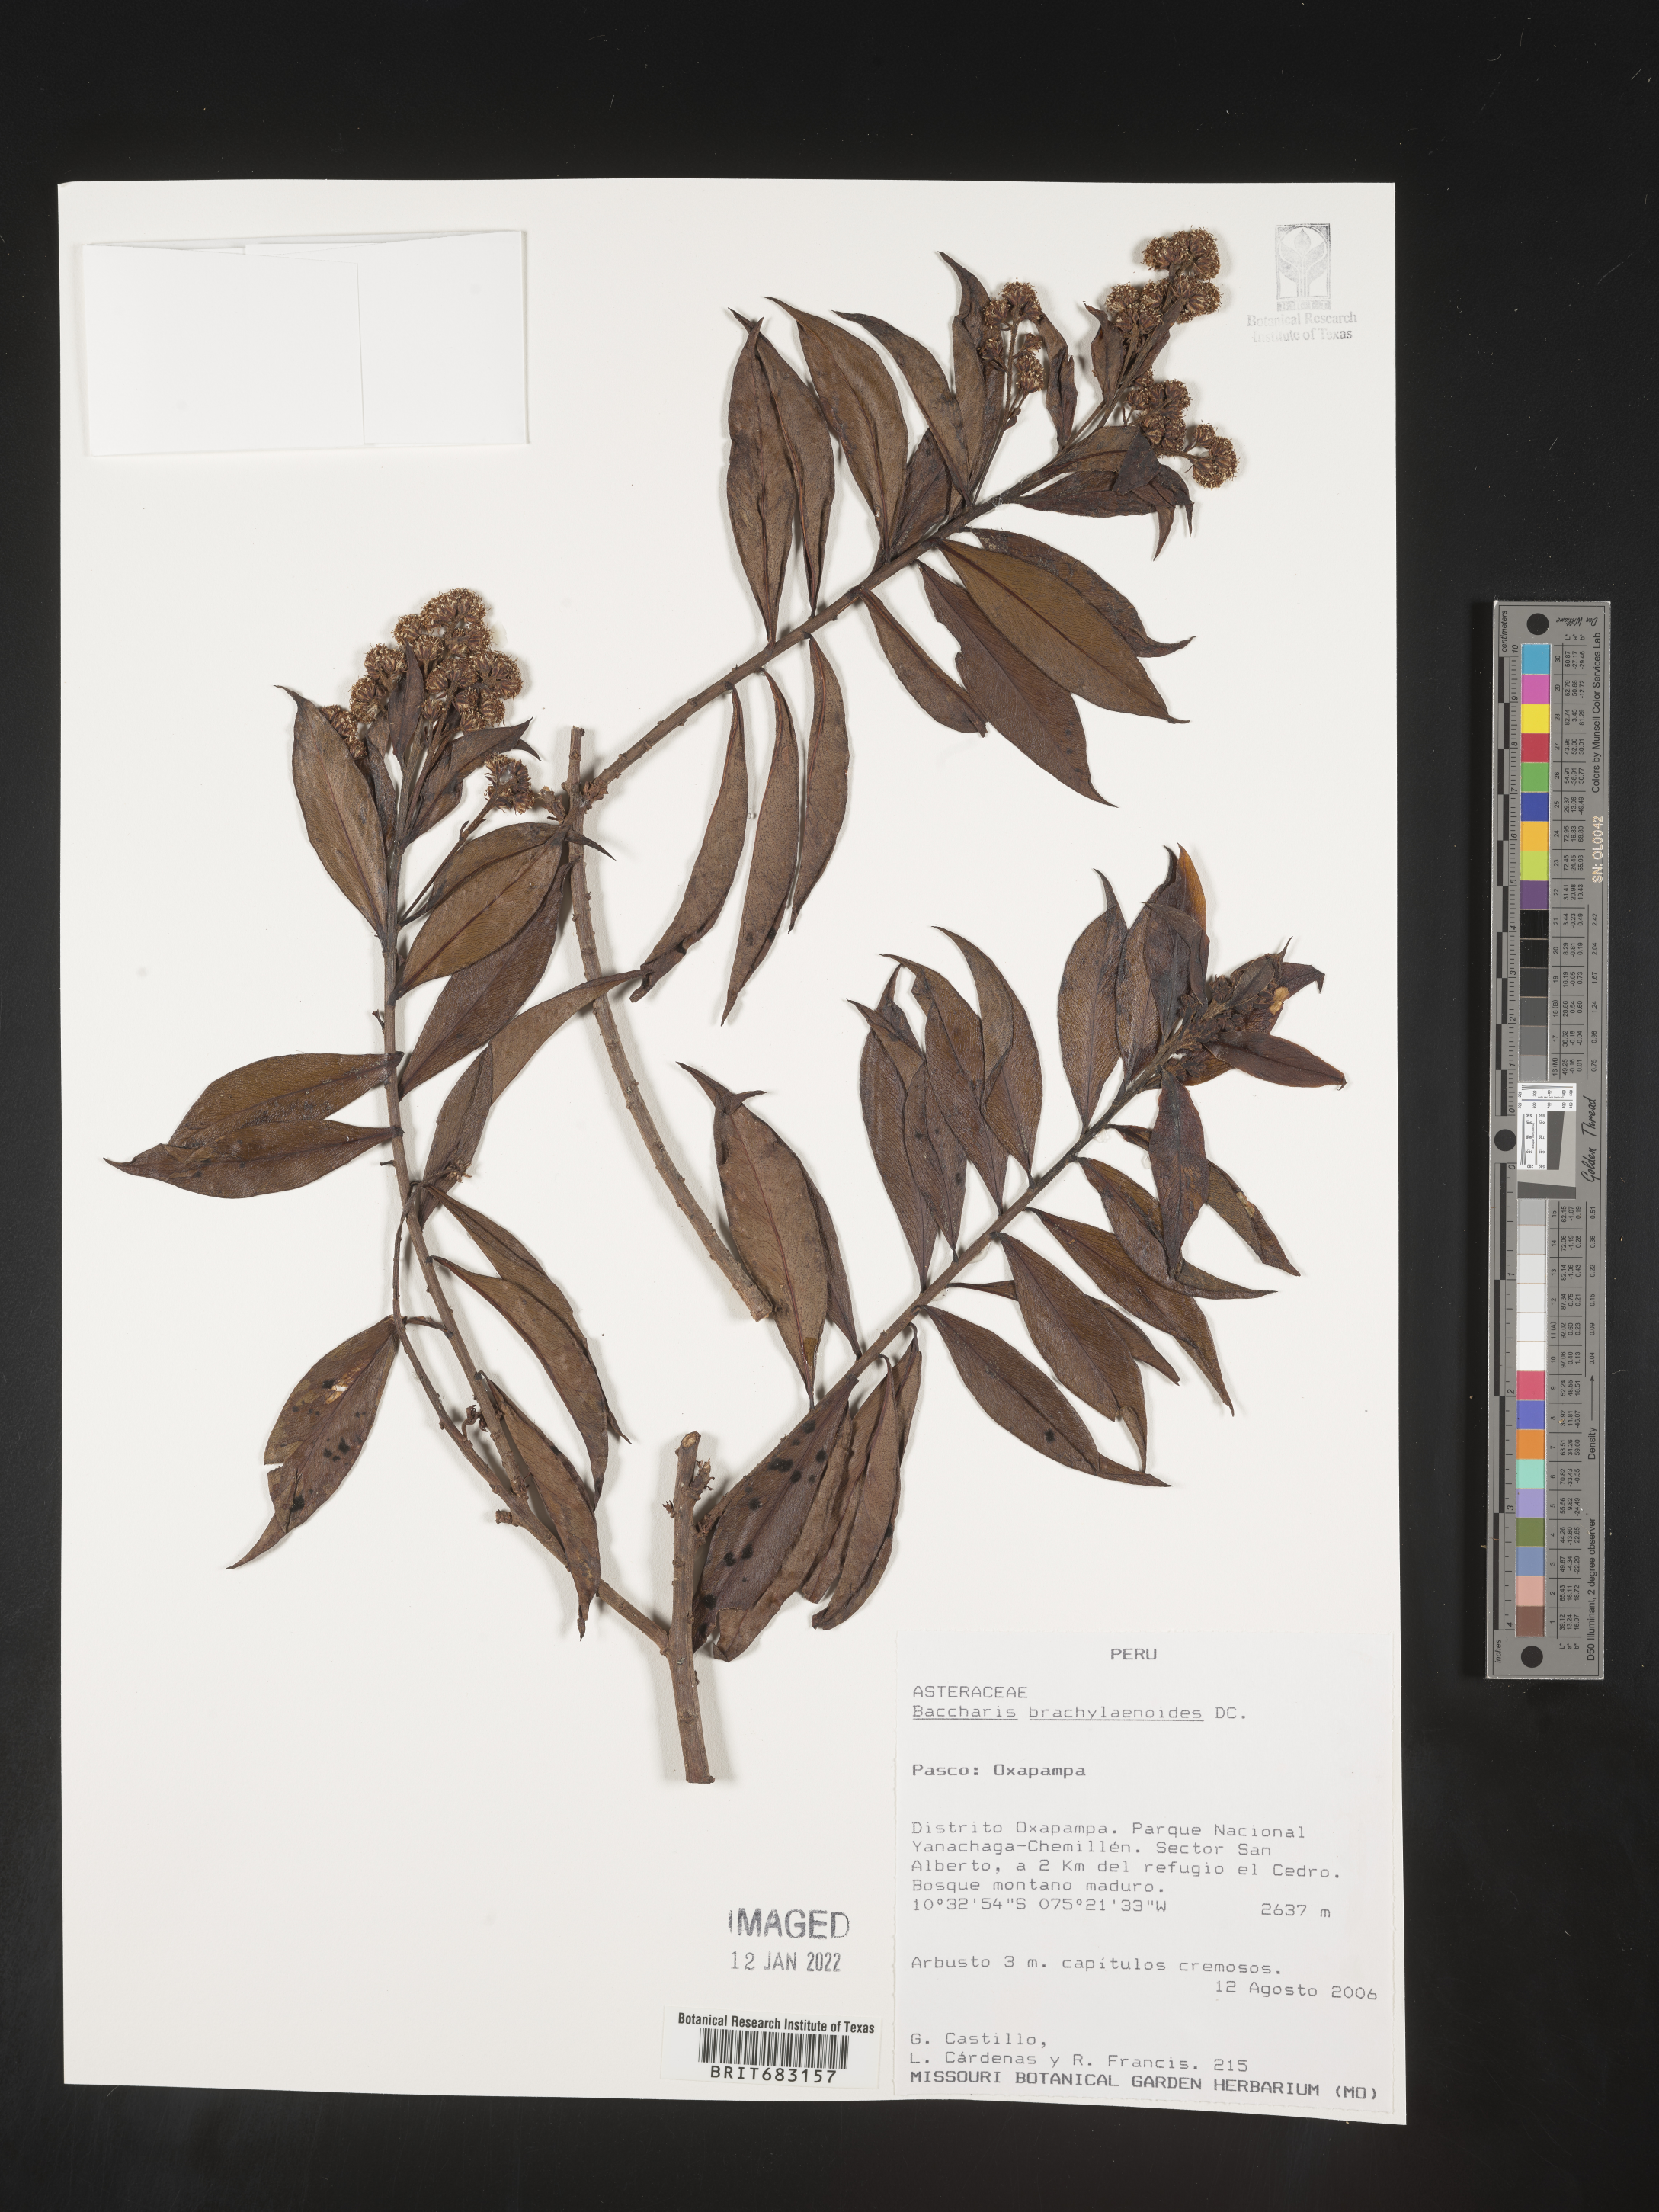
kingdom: Plantae
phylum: Tracheophyta
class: Magnoliopsida
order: Asterales
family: Asteraceae
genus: Baccharis
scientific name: Baccharis
